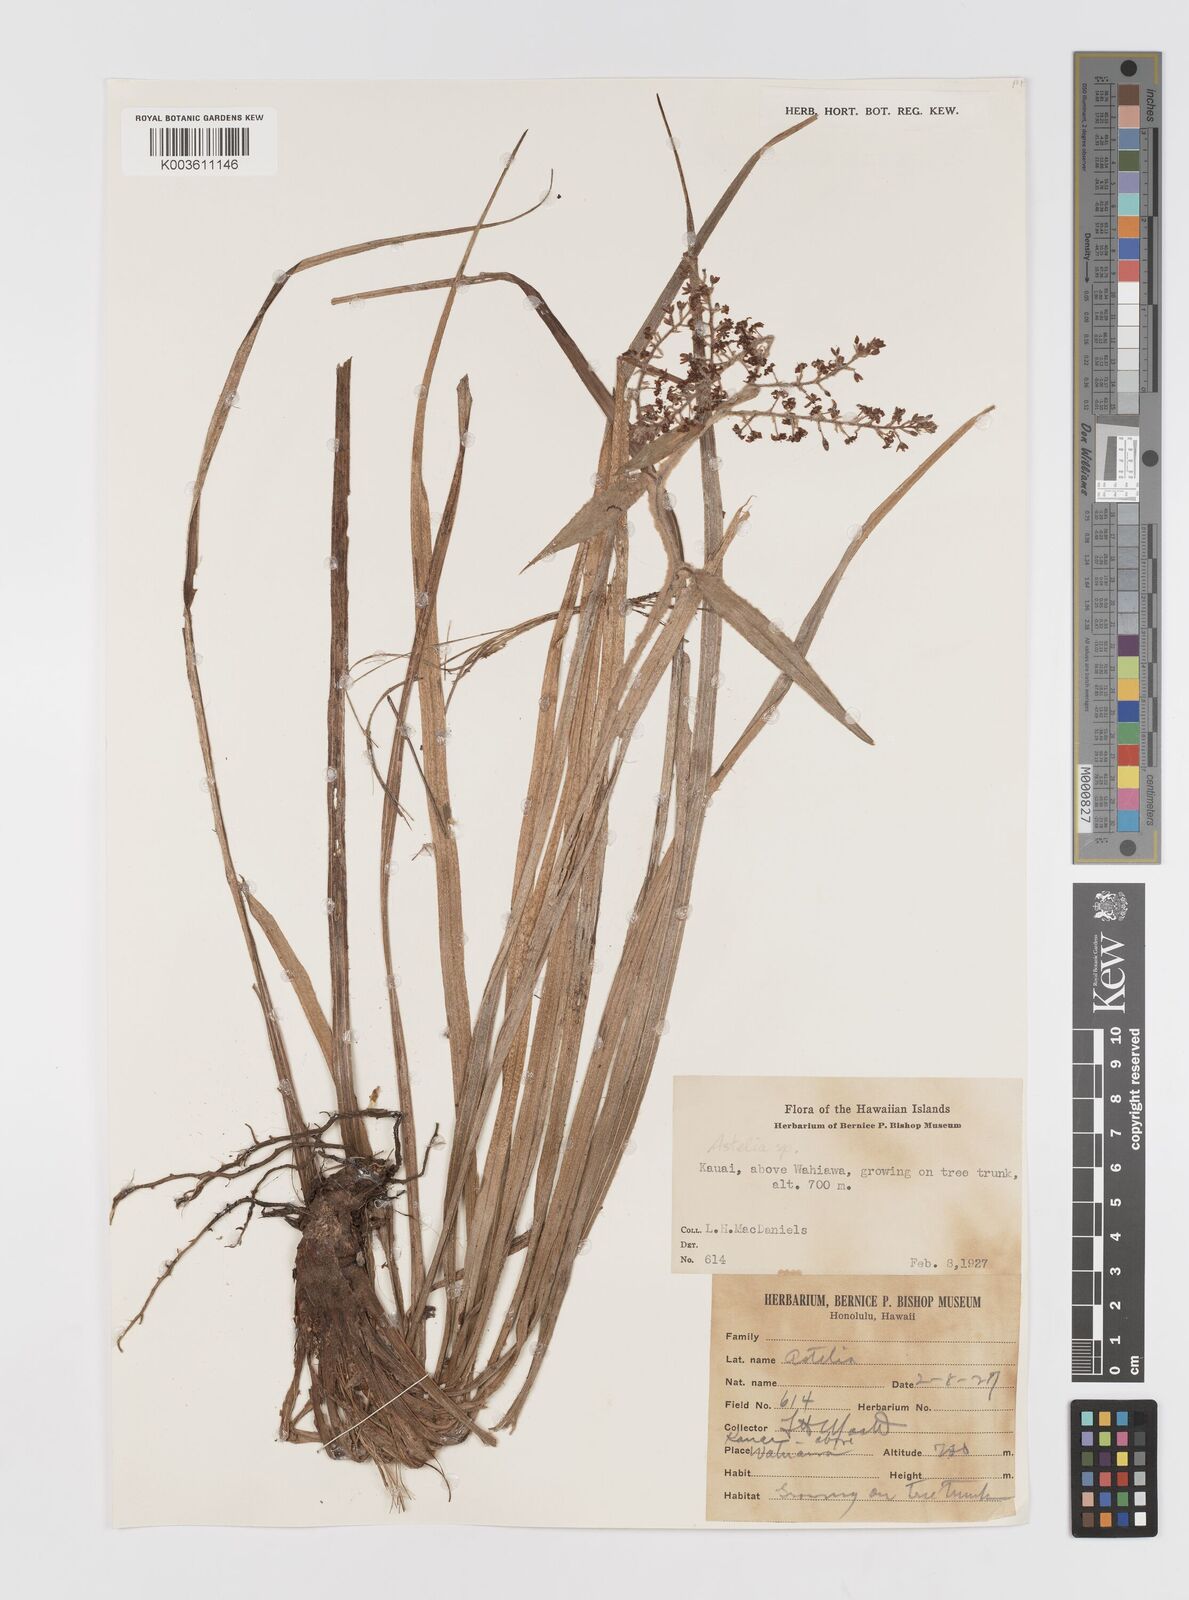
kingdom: Plantae
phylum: Tracheophyta
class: Liliopsida
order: Asparagales
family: Asteliaceae
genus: Astelia
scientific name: Astelia argyrocoma
